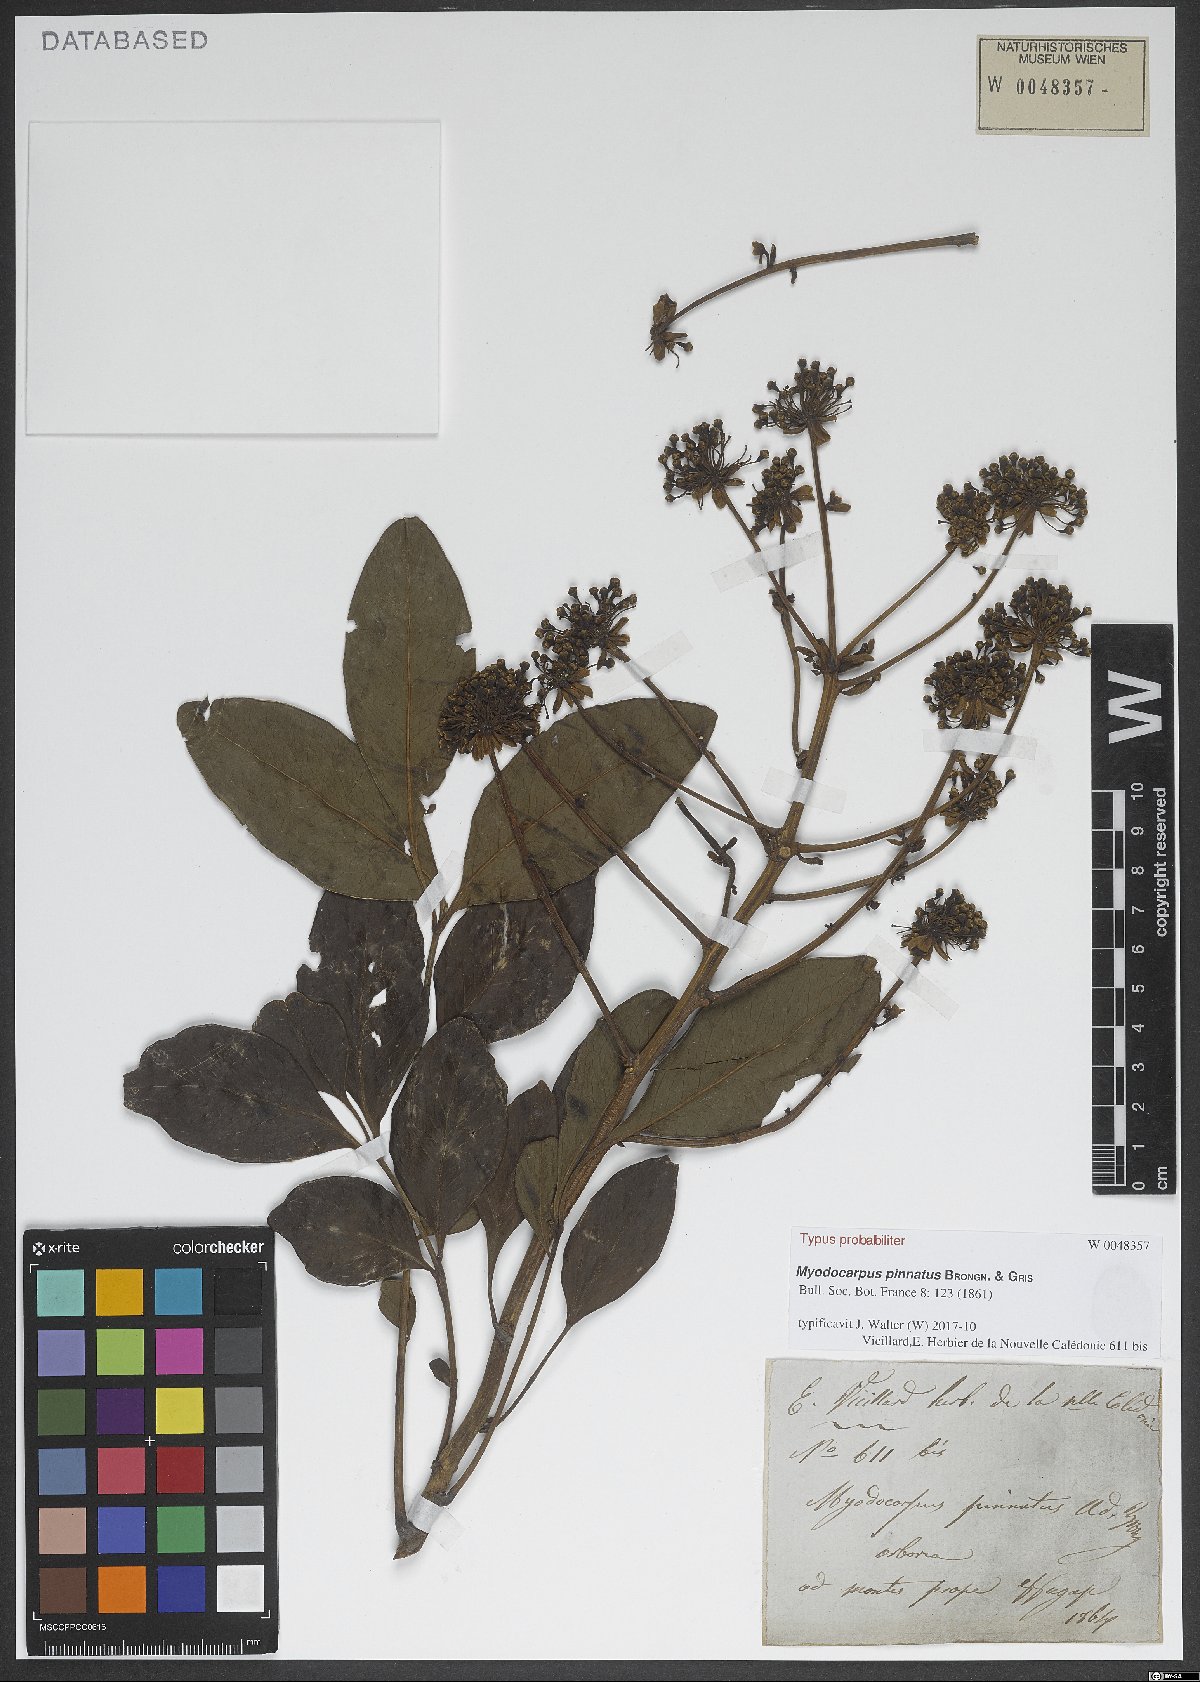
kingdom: Plantae
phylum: Tracheophyta
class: Magnoliopsida
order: Apiales
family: Myodocarpaceae
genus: Myodocarpus
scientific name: Myodocarpus pinnatus
